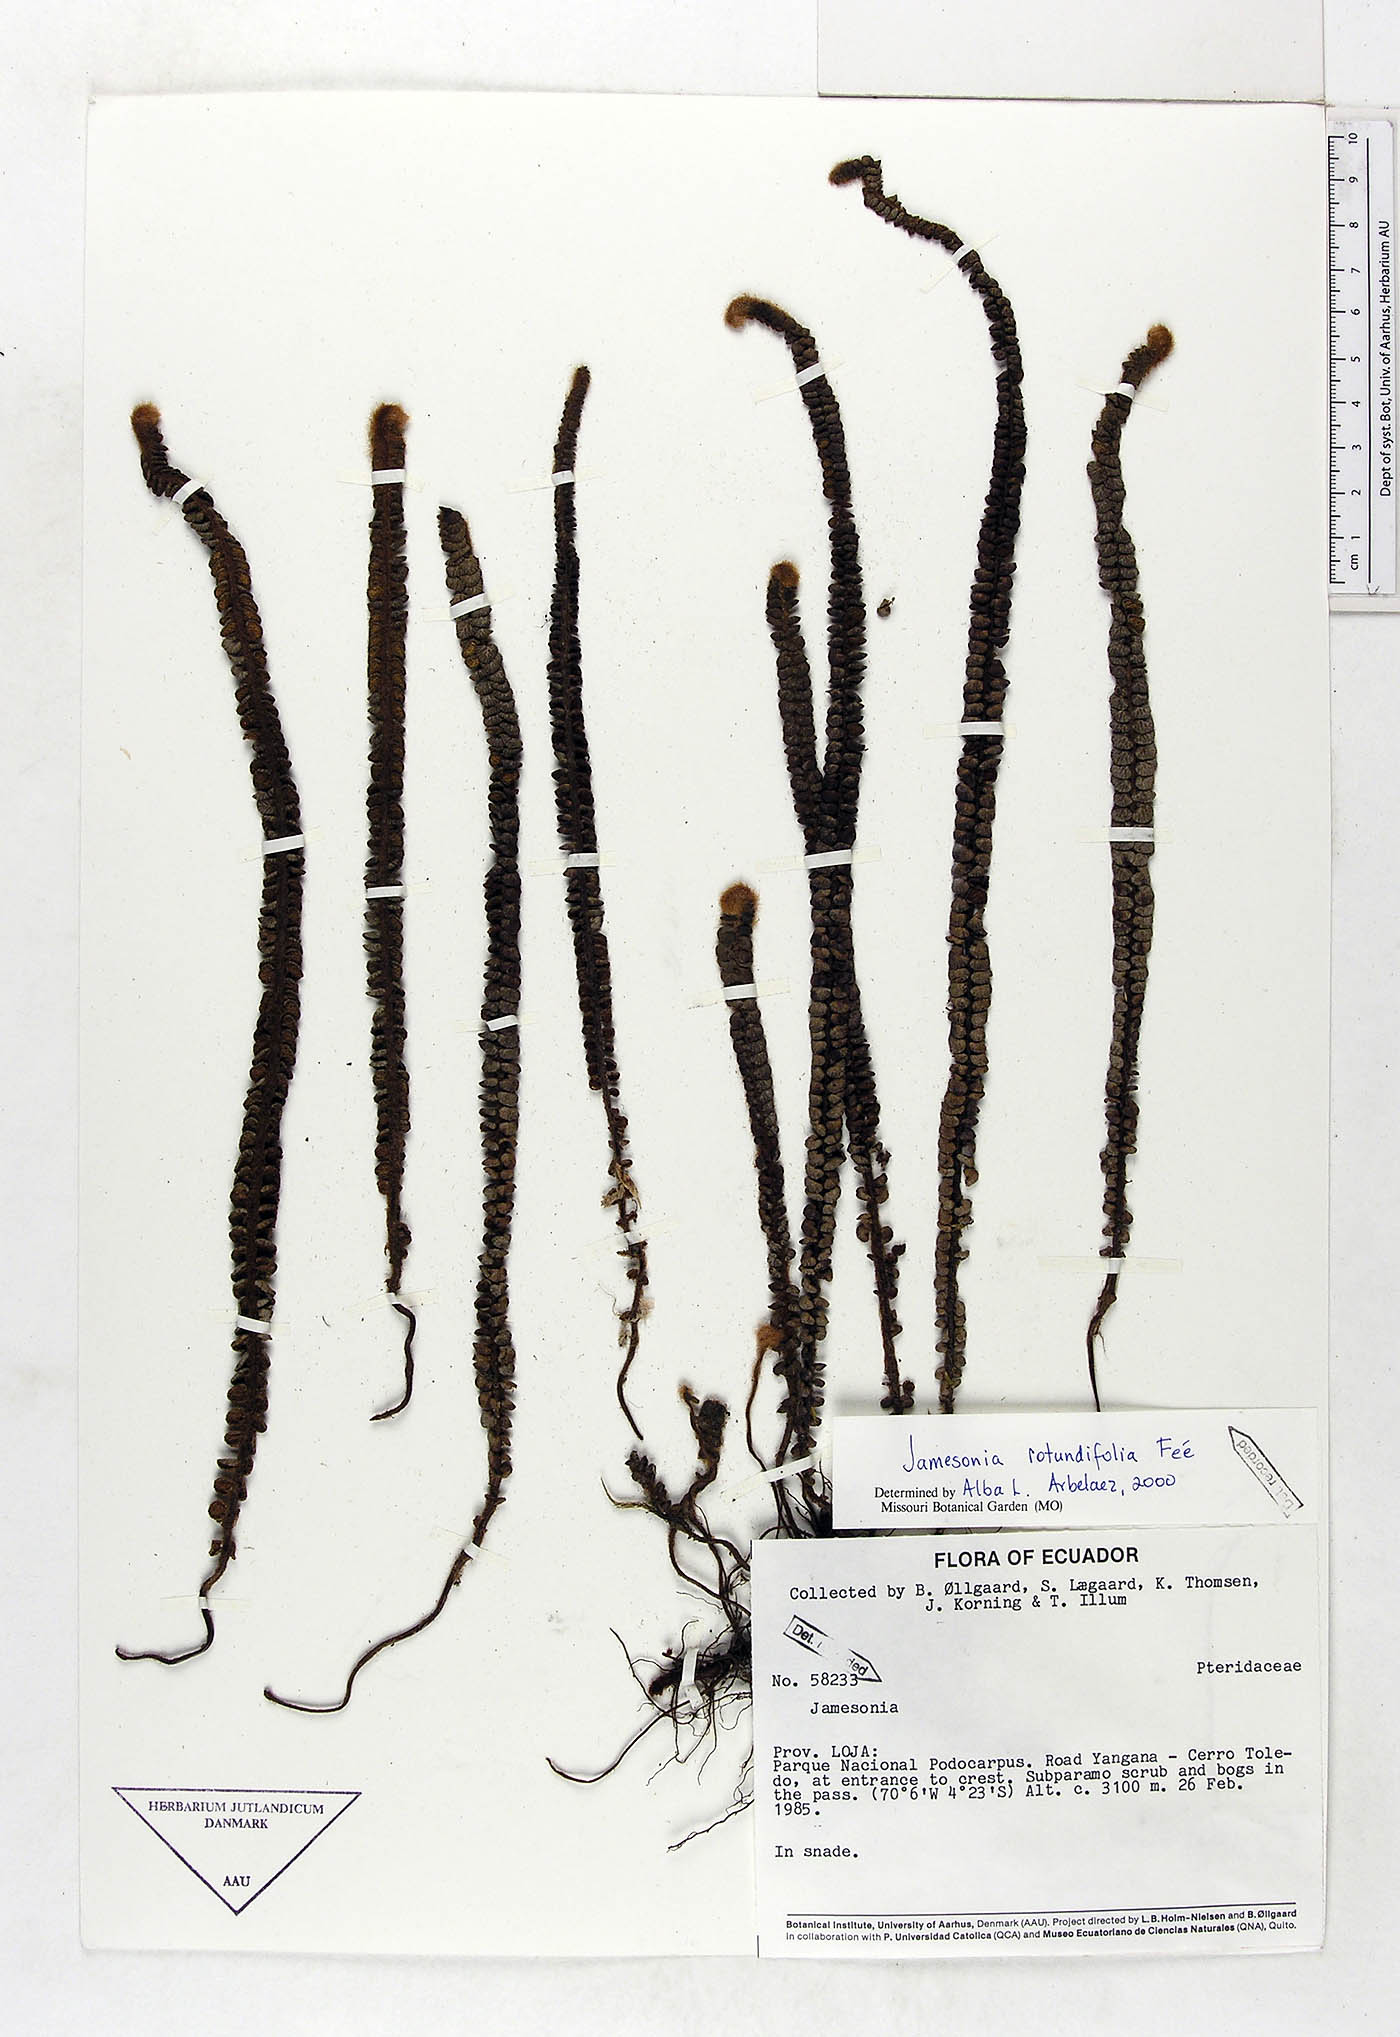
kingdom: Plantae
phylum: Tracheophyta
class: Polypodiopsida
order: Polypodiales
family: Pteridaceae
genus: Jamesonia
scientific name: Jamesonia rotundifolia
